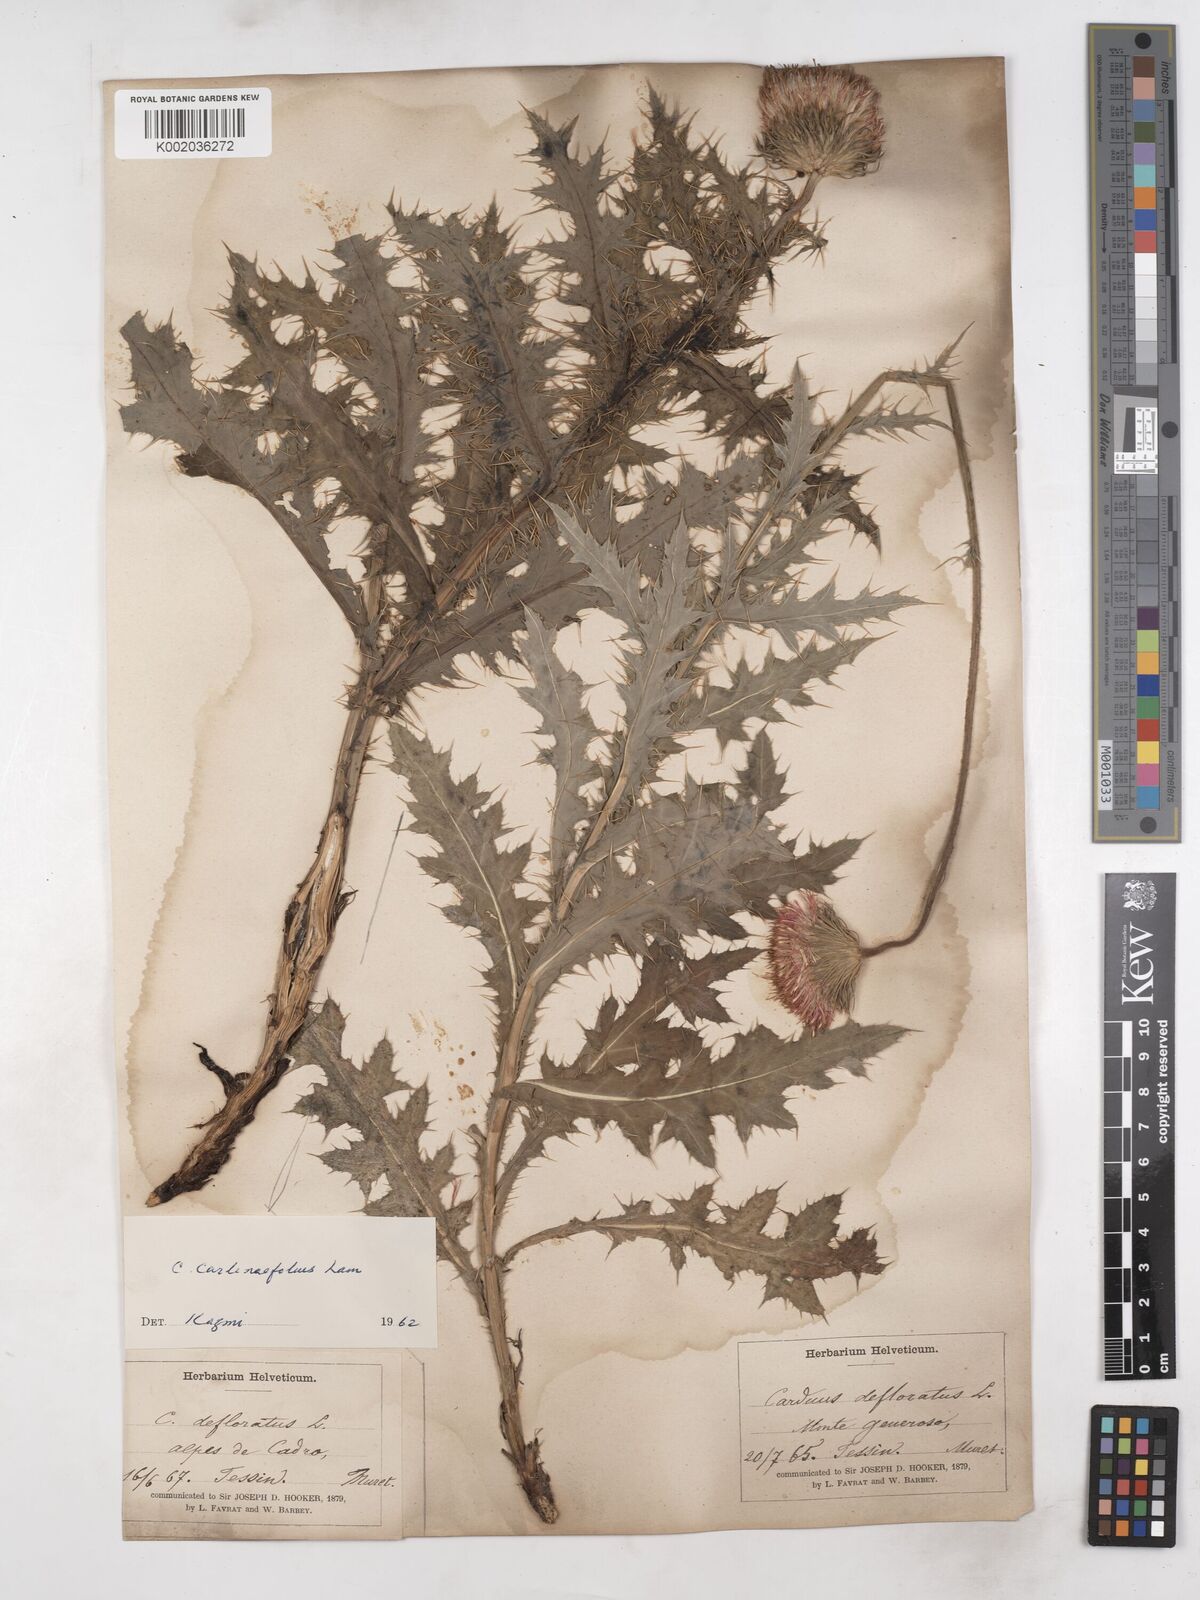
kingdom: Plantae
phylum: Tracheophyta
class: Magnoliopsida
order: Asterales
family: Asteraceae
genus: Carduus
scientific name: Carduus defloratus
